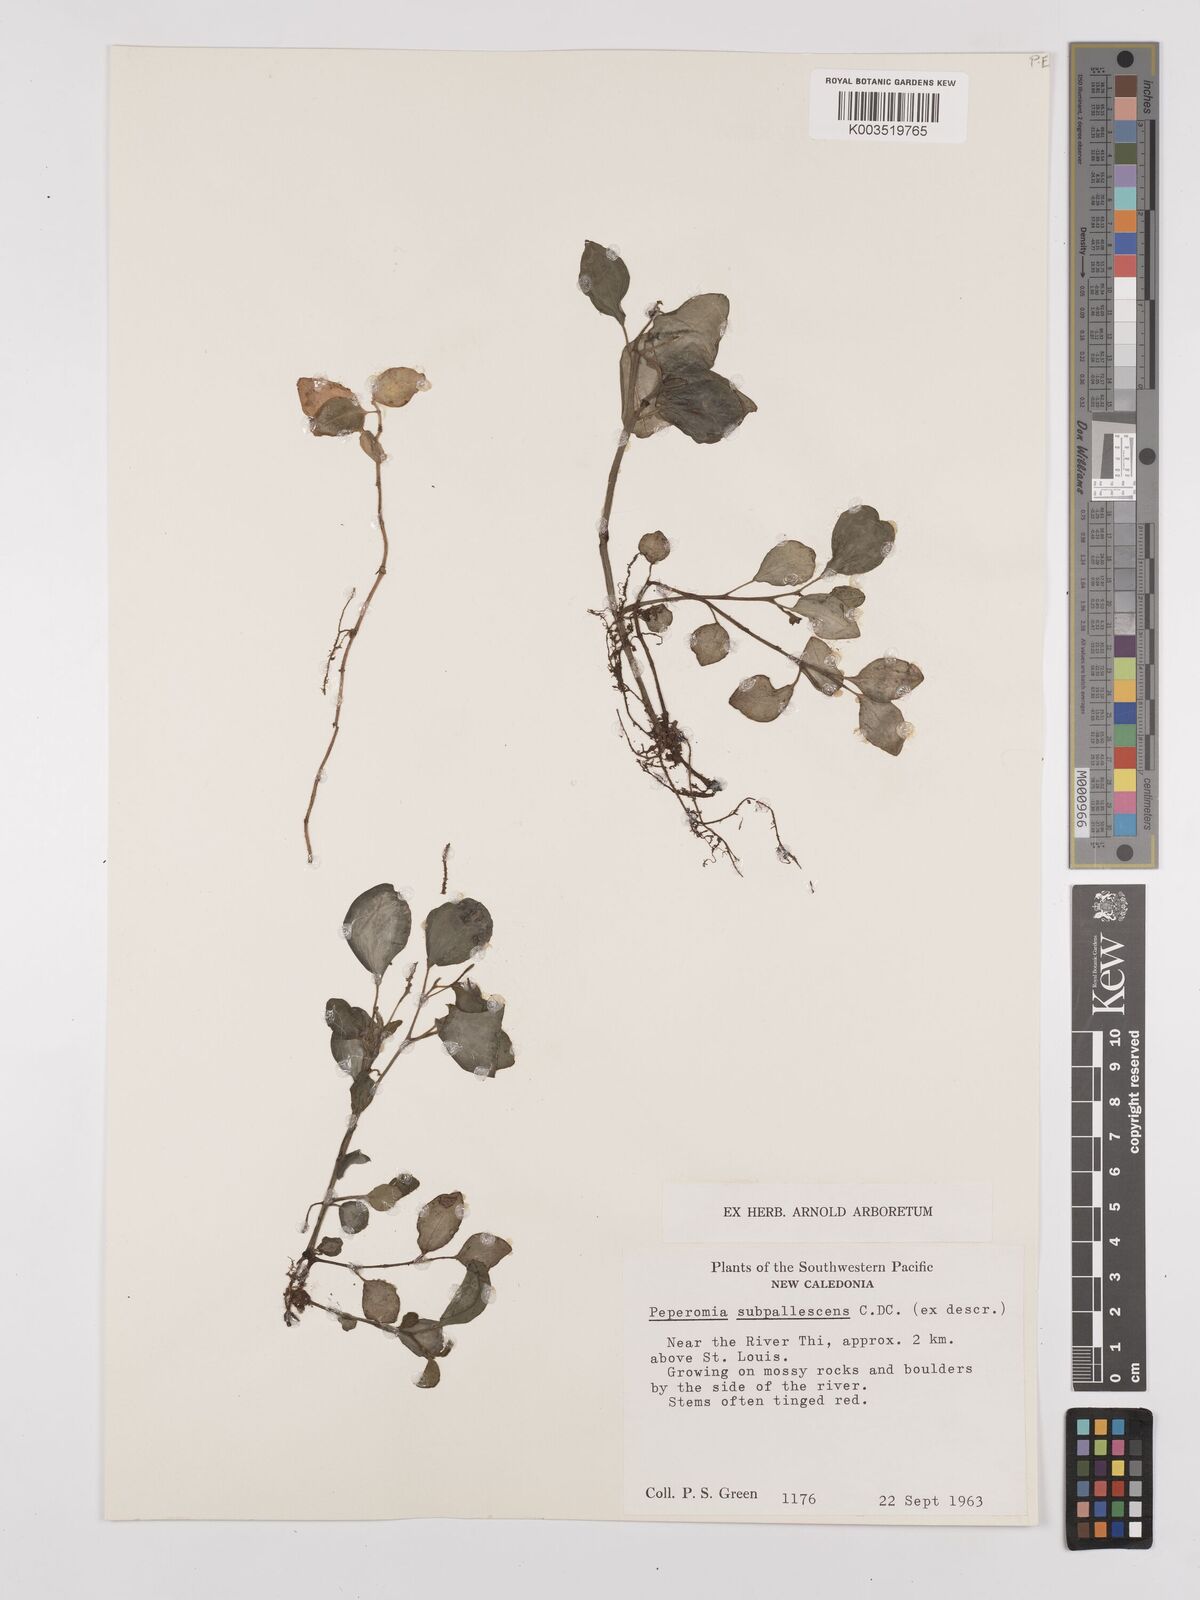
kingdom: Plantae
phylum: Tracheophyta
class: Magnoliopsida
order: Piperales
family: Piperaceae
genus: Peperomia
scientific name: Peperomia subpallescens
